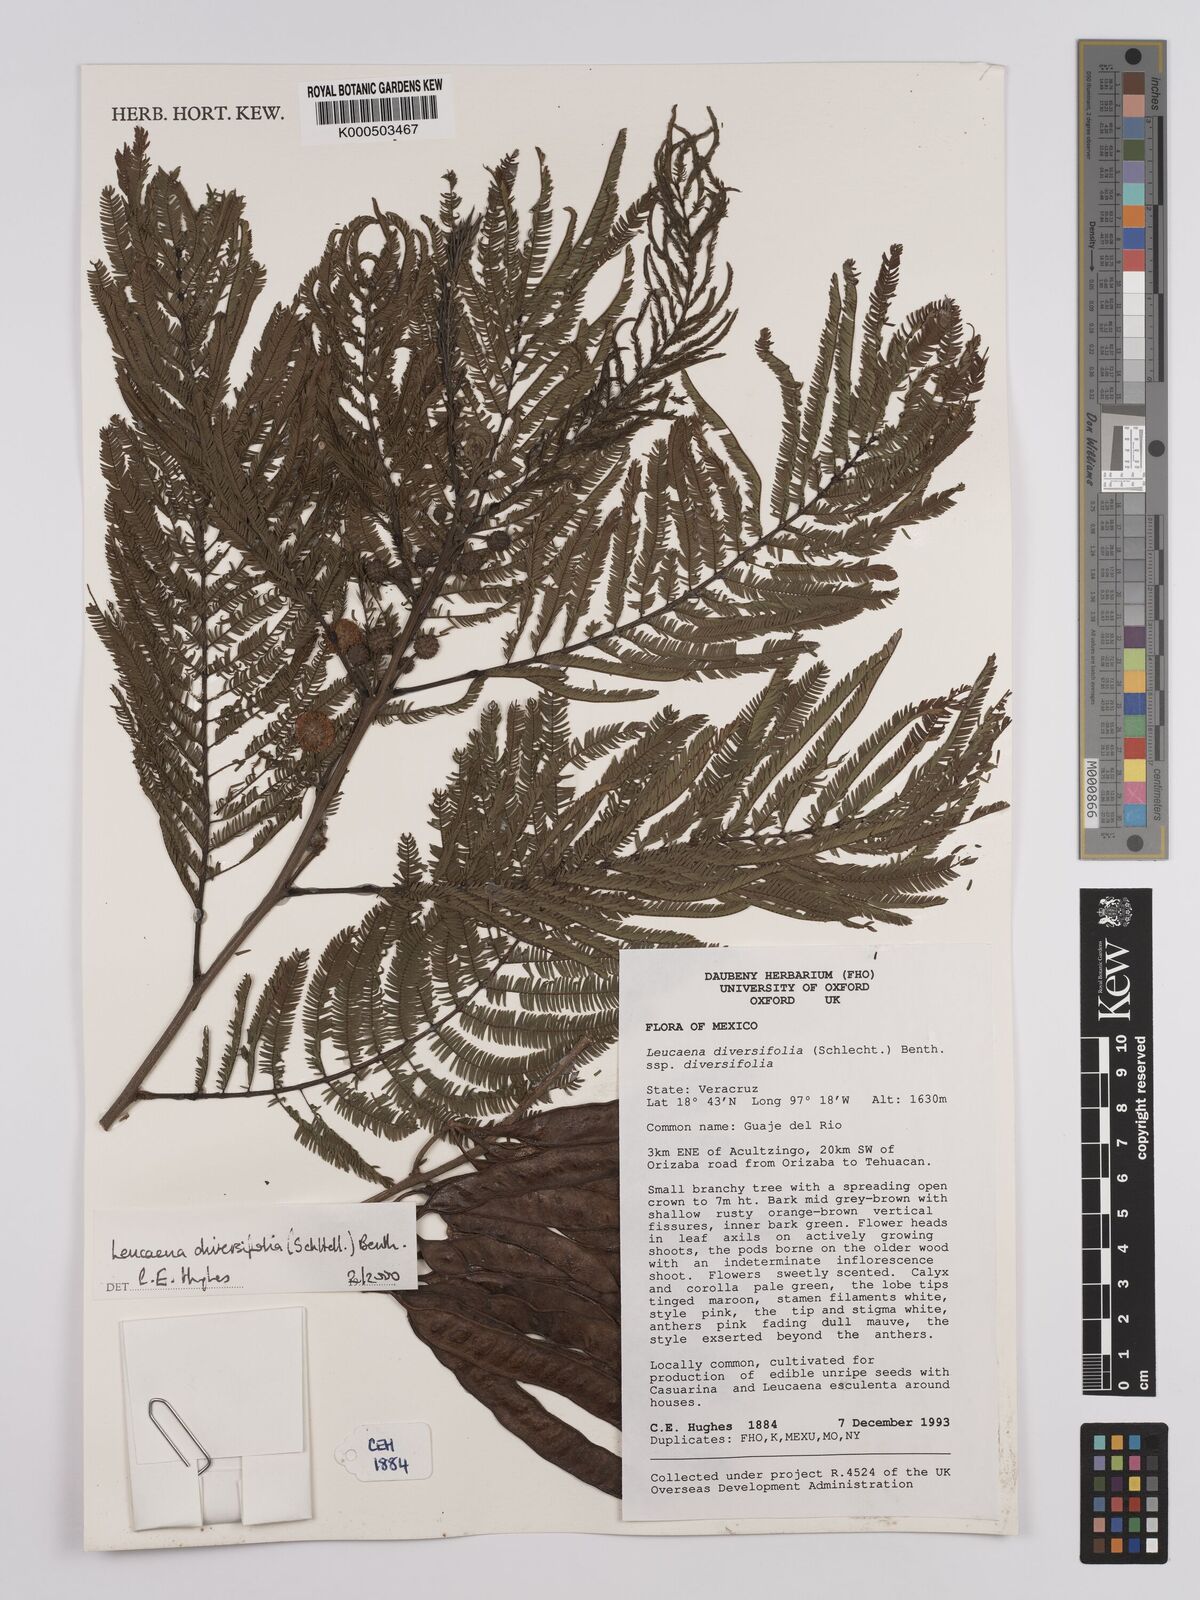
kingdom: Plantae
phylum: Tracheophyta
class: Magnoliopsida
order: Fabales
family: Fabaceae
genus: Leucaena
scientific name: Leucaena diversifolia
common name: Red leucaena
